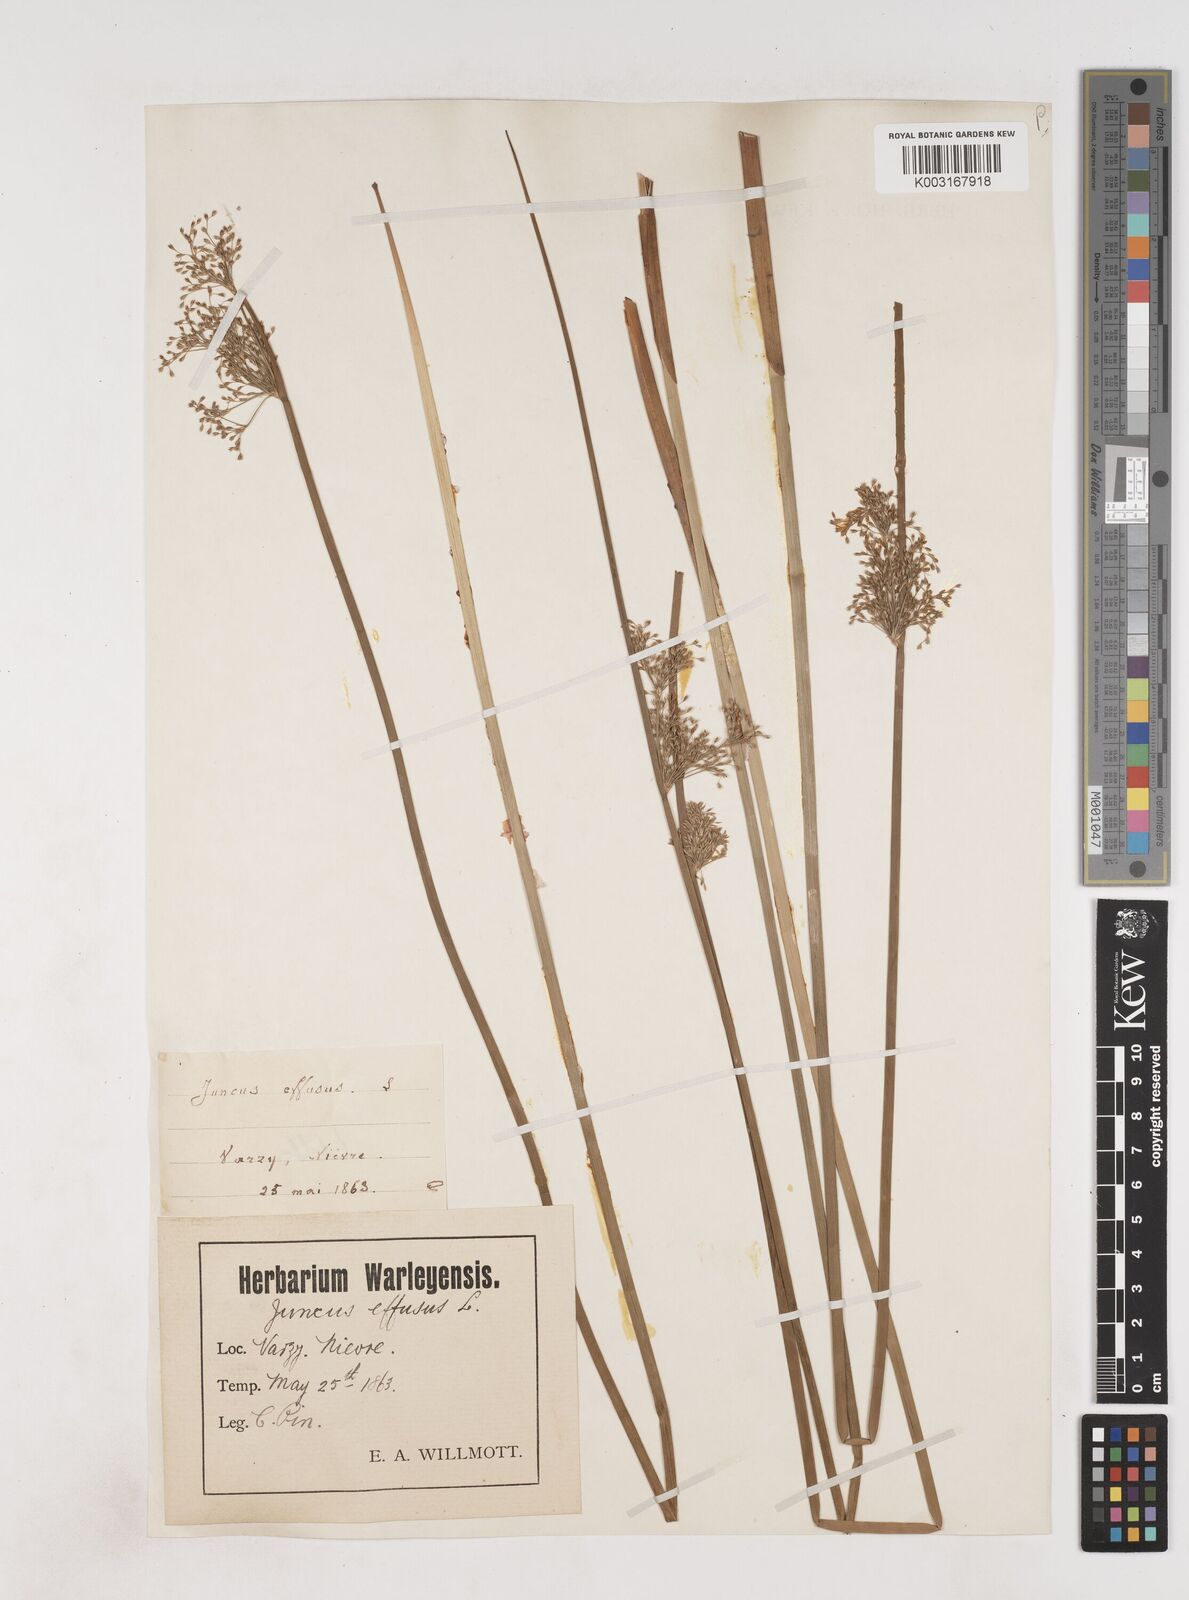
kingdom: Plantae
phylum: Tracheophyta
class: Liliopsida
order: Poales
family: Juncaceae
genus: Juncus
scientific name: Juncus effusus
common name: Soft rush
